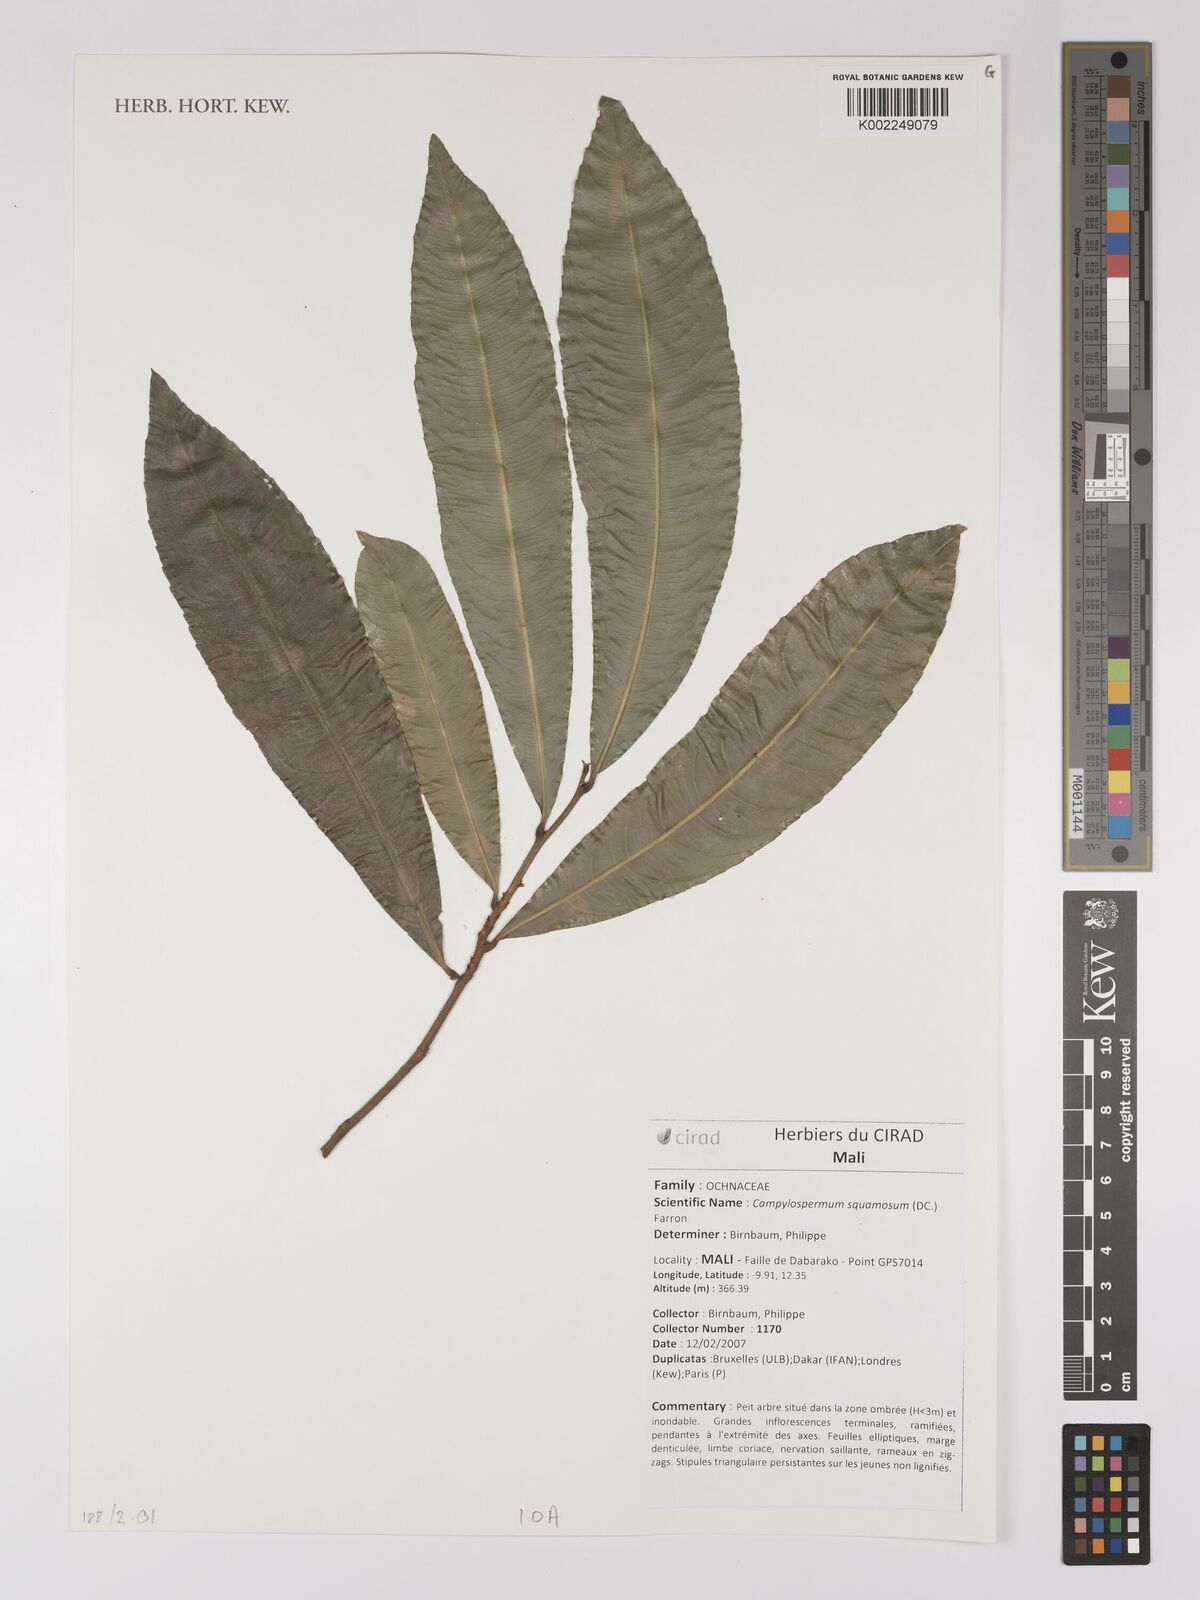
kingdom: Plantae
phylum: Tracheophyta
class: Magnoliopsida
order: Malpighiales
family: Ochnaceae
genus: Campylospermum
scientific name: Campylospermum squamosum
